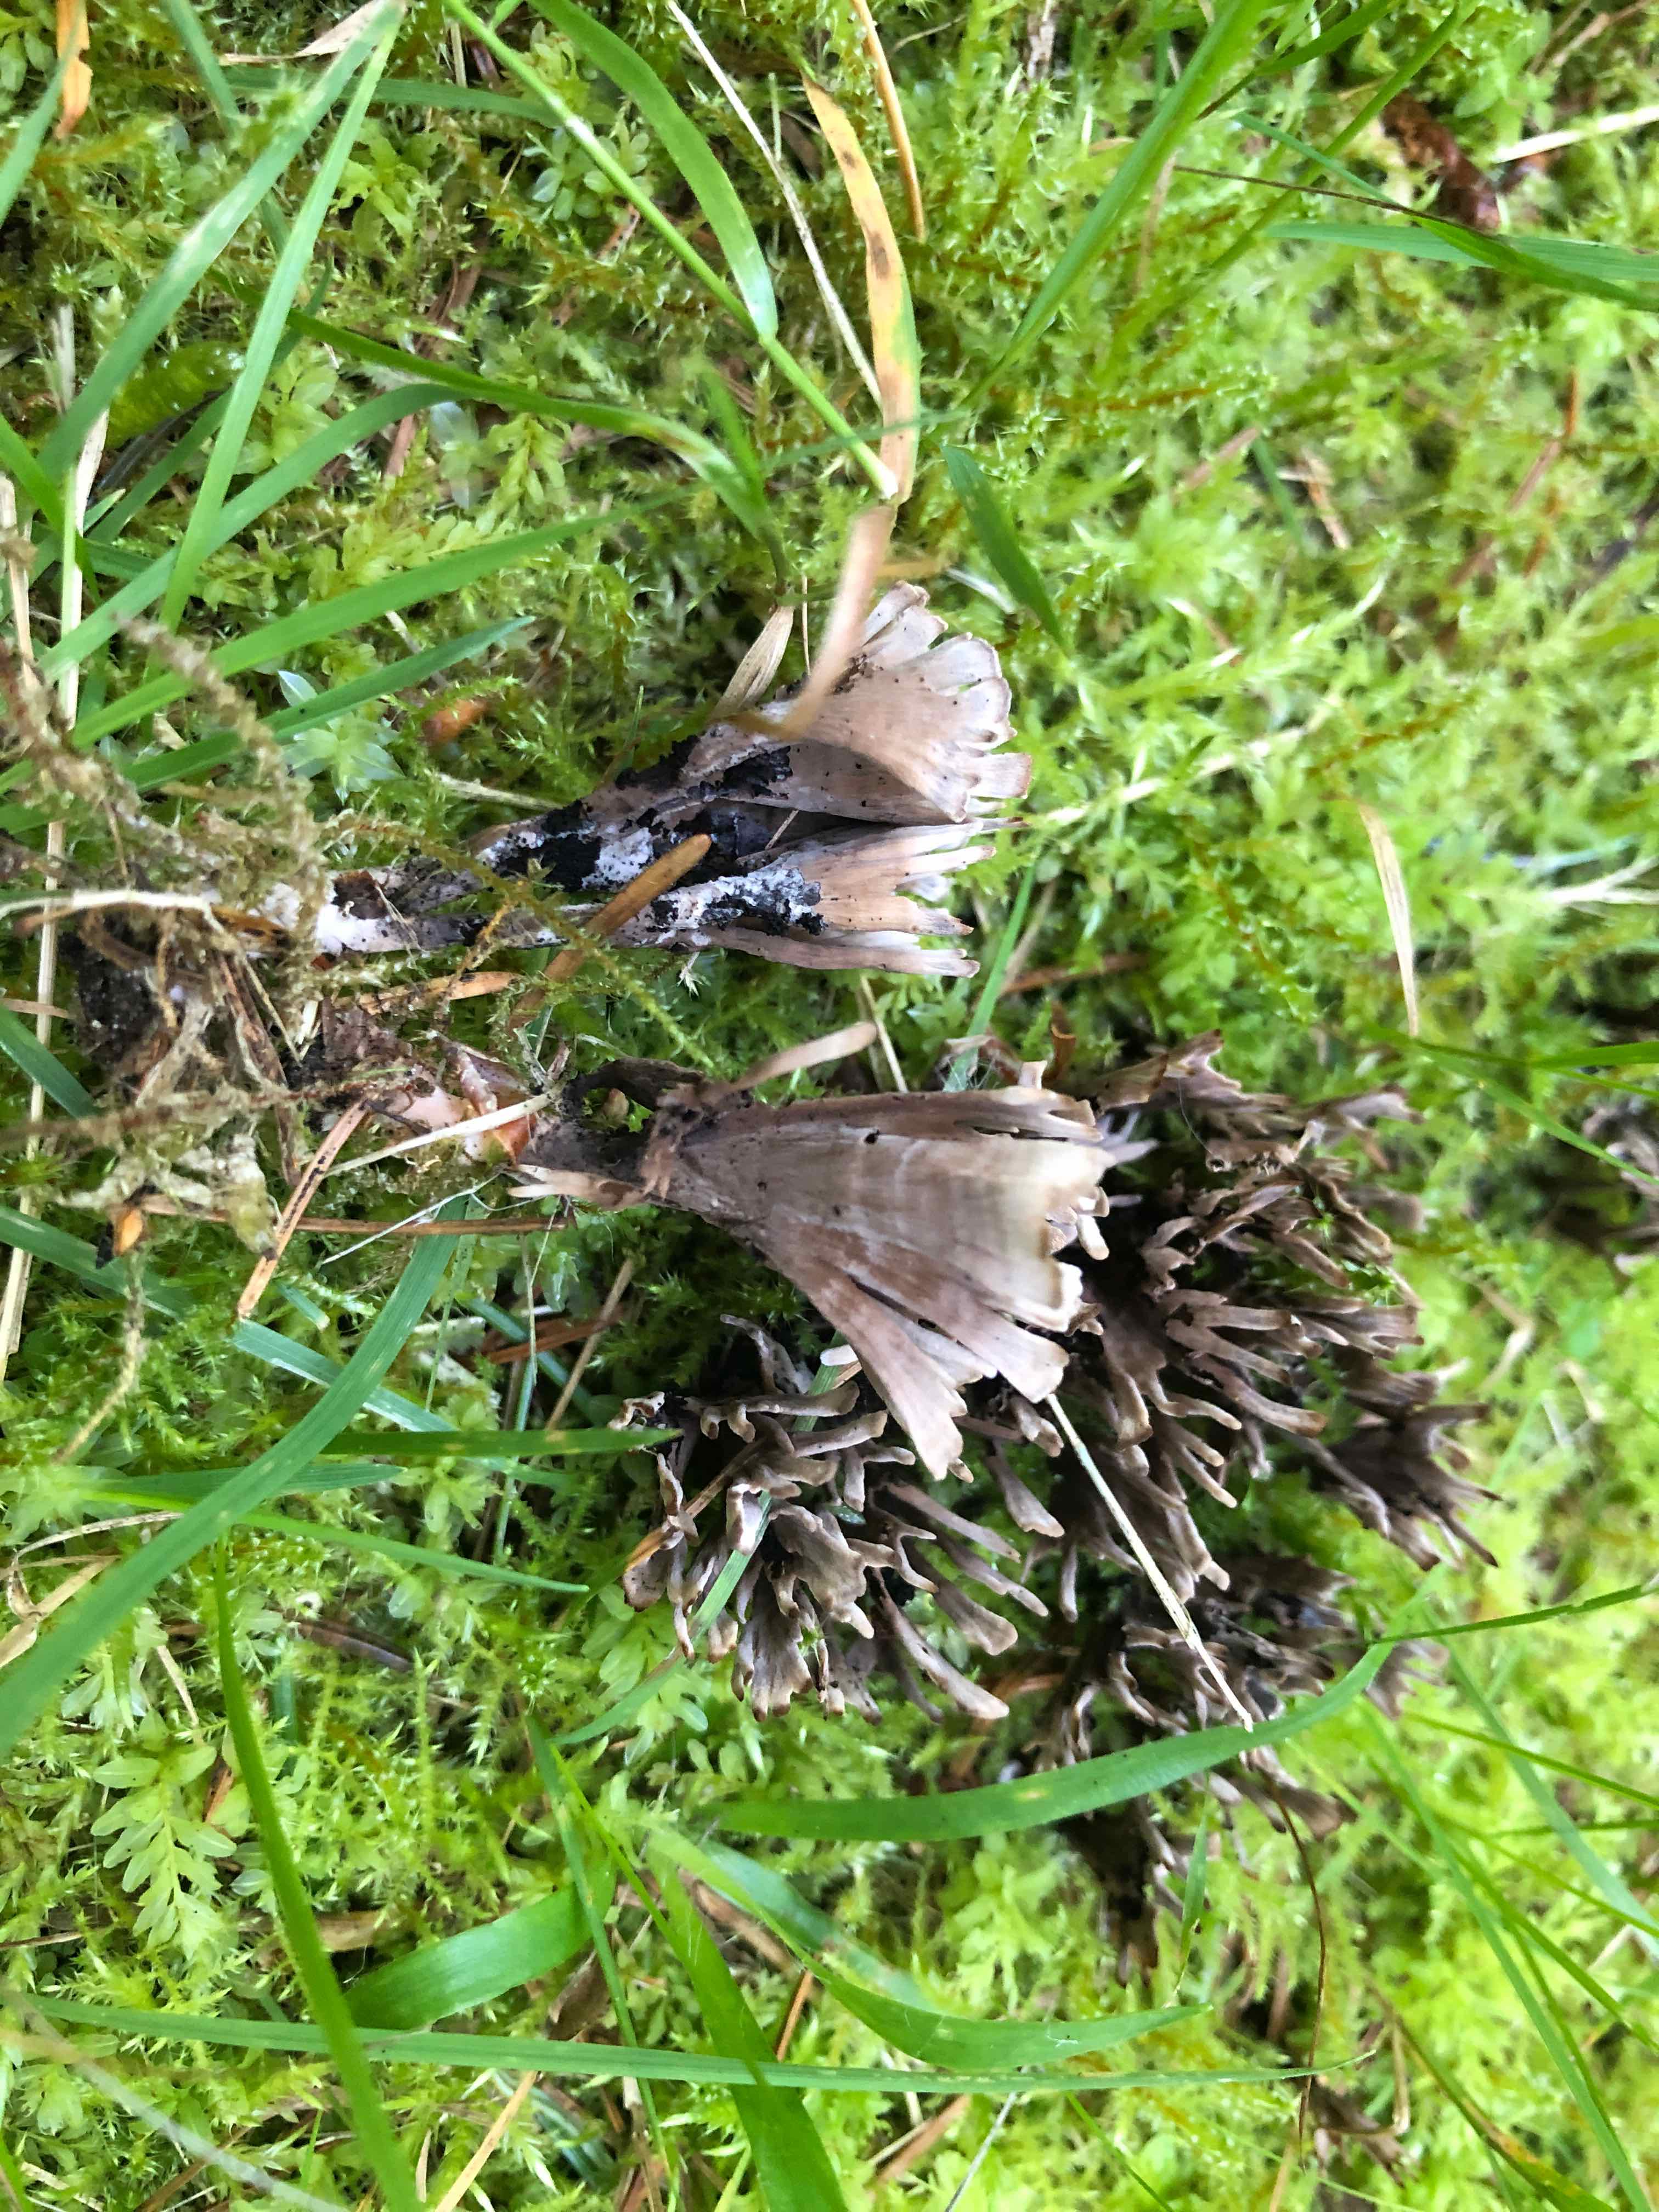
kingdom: Fungi
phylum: Basidiomycota
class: Agaricomycetes
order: Thelephorales
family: Thelephoraceae
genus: Thelephora
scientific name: Thelephora palmata
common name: grenet frynsesvamp
